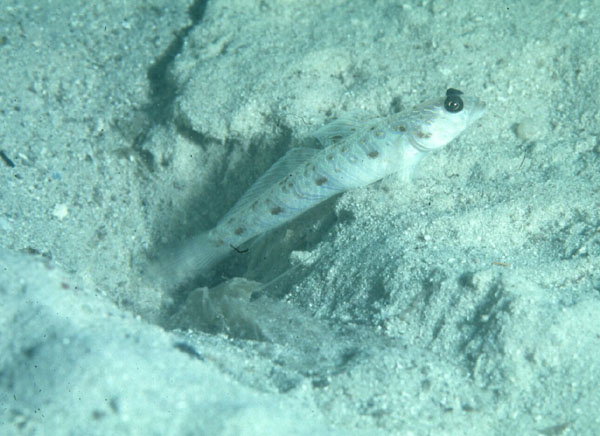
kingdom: Animalia
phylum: Chordata
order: Perciformes
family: Gobiidae
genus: Vanderhorstia
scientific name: Vanderhorstia delagoae
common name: Candystick goby
